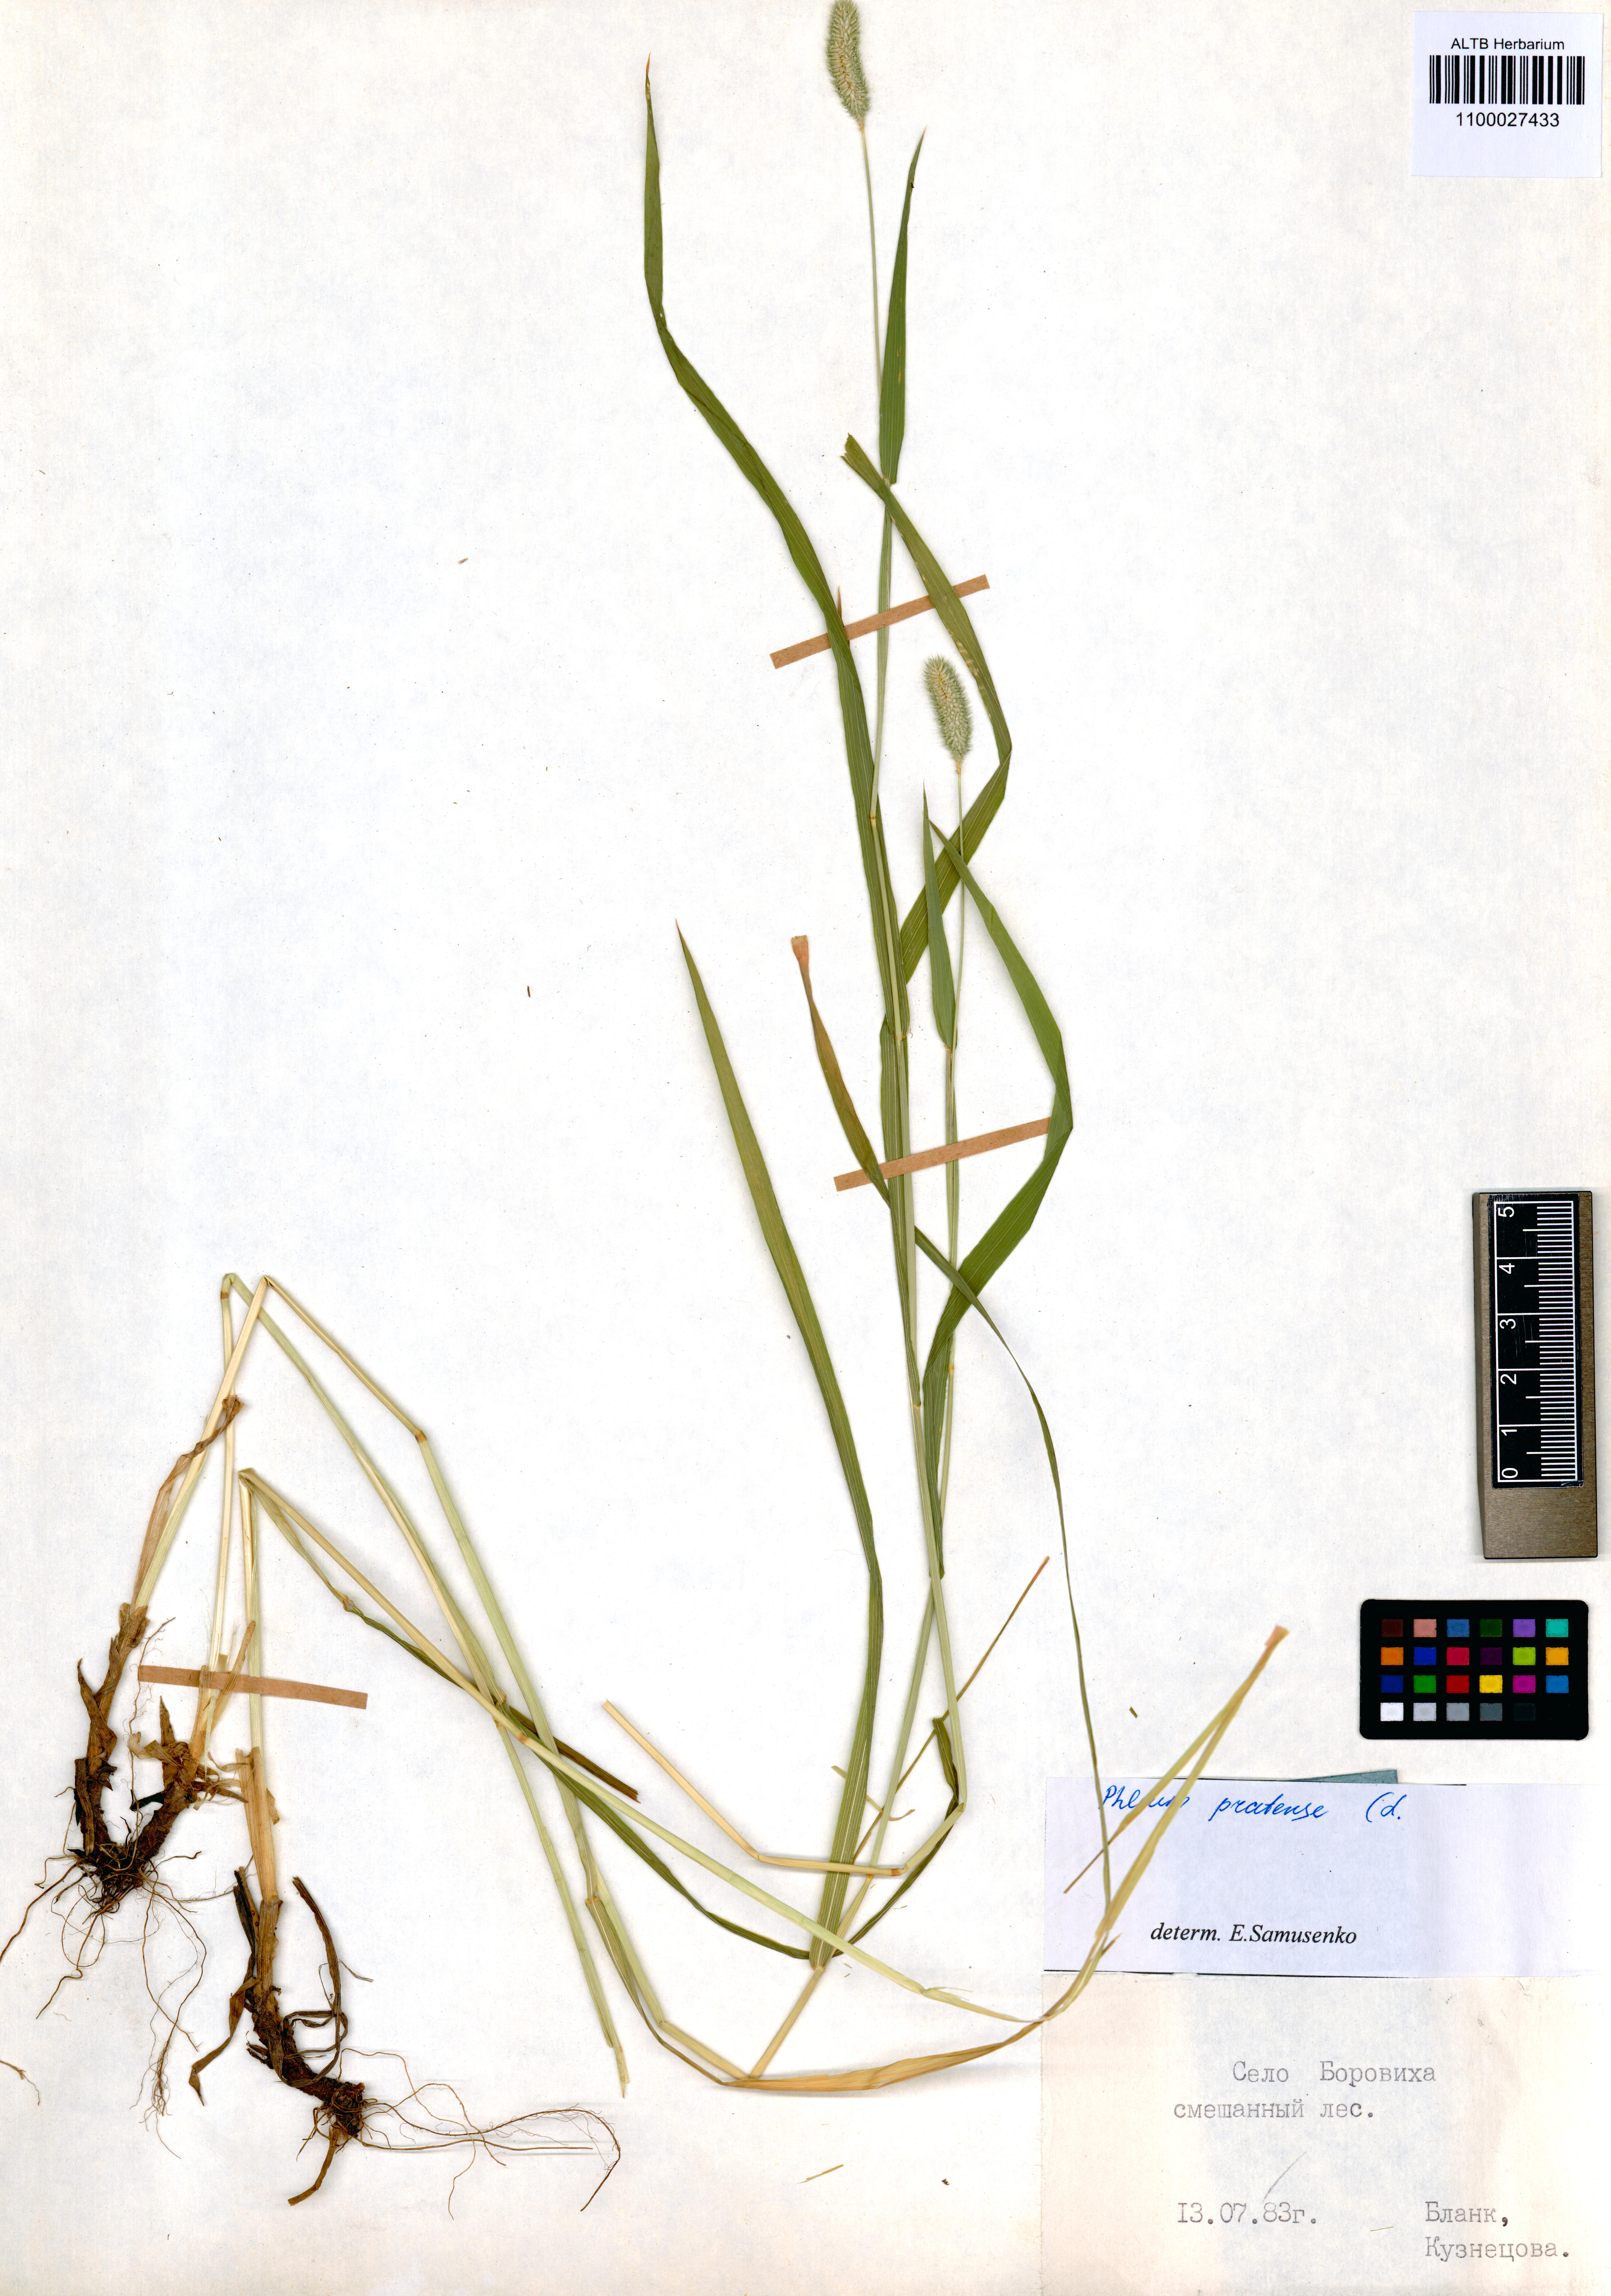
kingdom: Plantae
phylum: Tracheophyta
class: Liliopsida
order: Poales
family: Poaceae
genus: Phleum
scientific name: Phleum pratense
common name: Timothy grass
